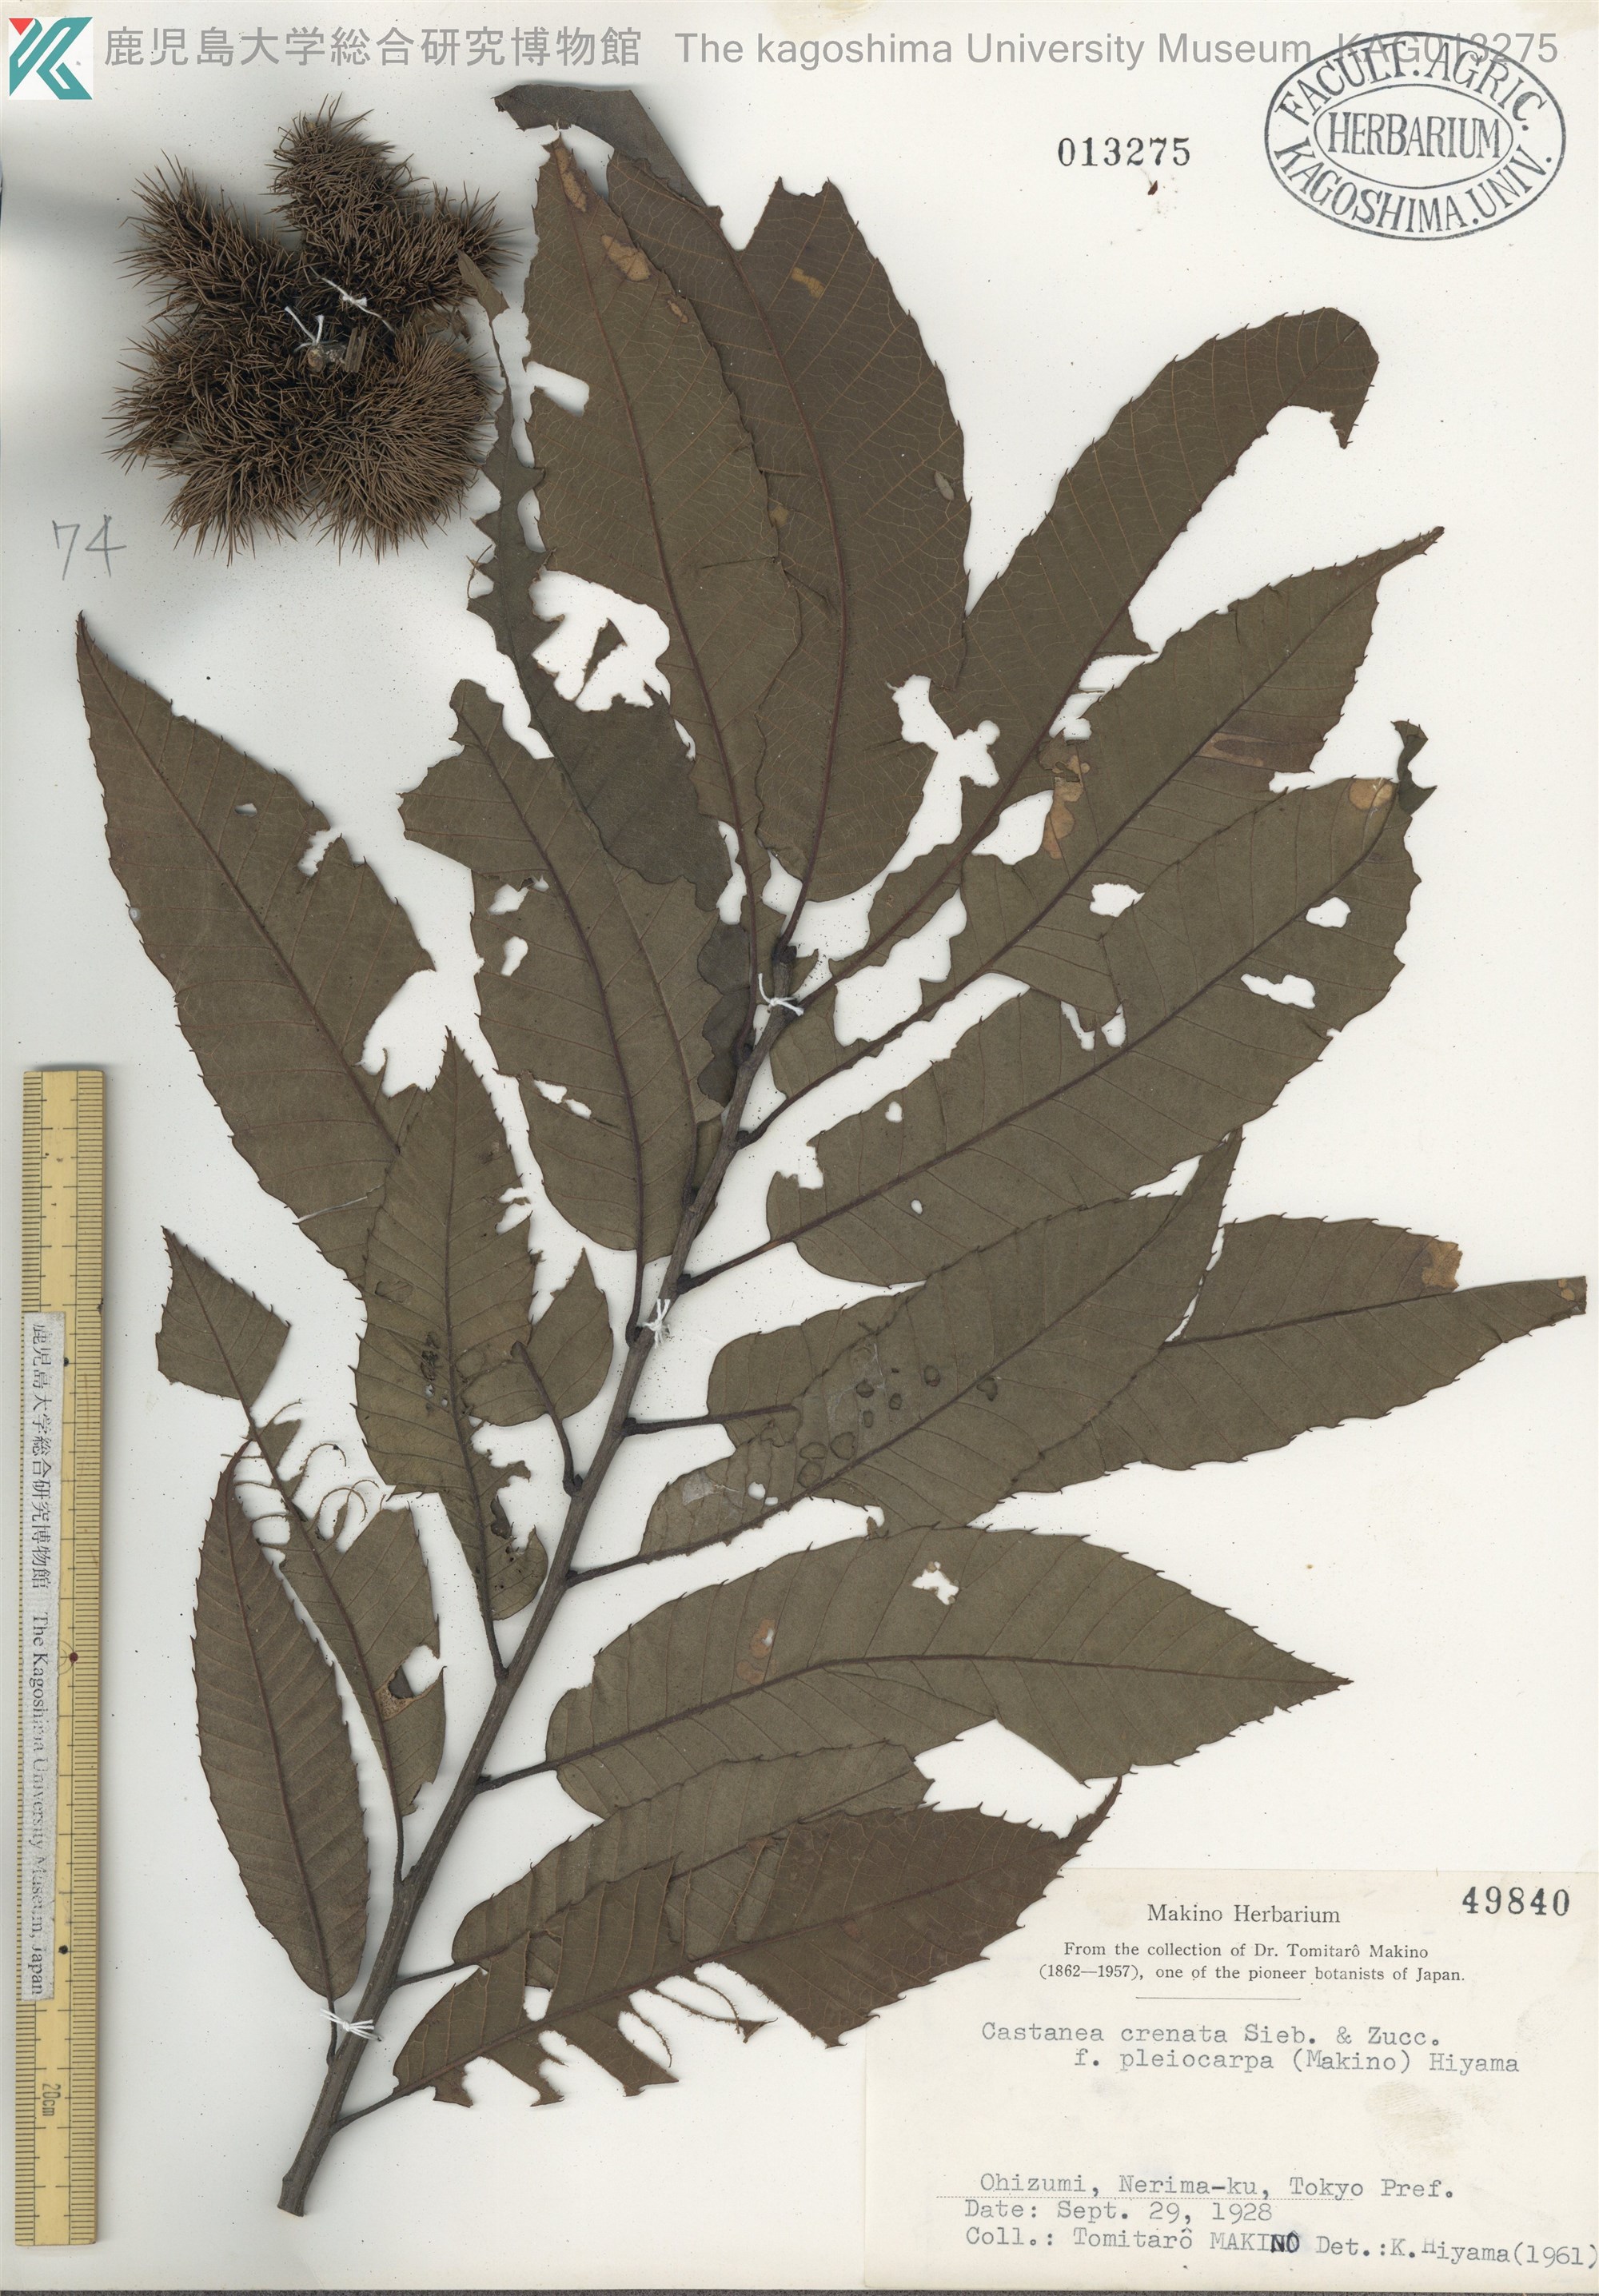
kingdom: Plantae
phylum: Tracheophyta
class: Magnoliopsida
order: Fagales
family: Fagaceae
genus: Castanea
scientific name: Castanea crenata
